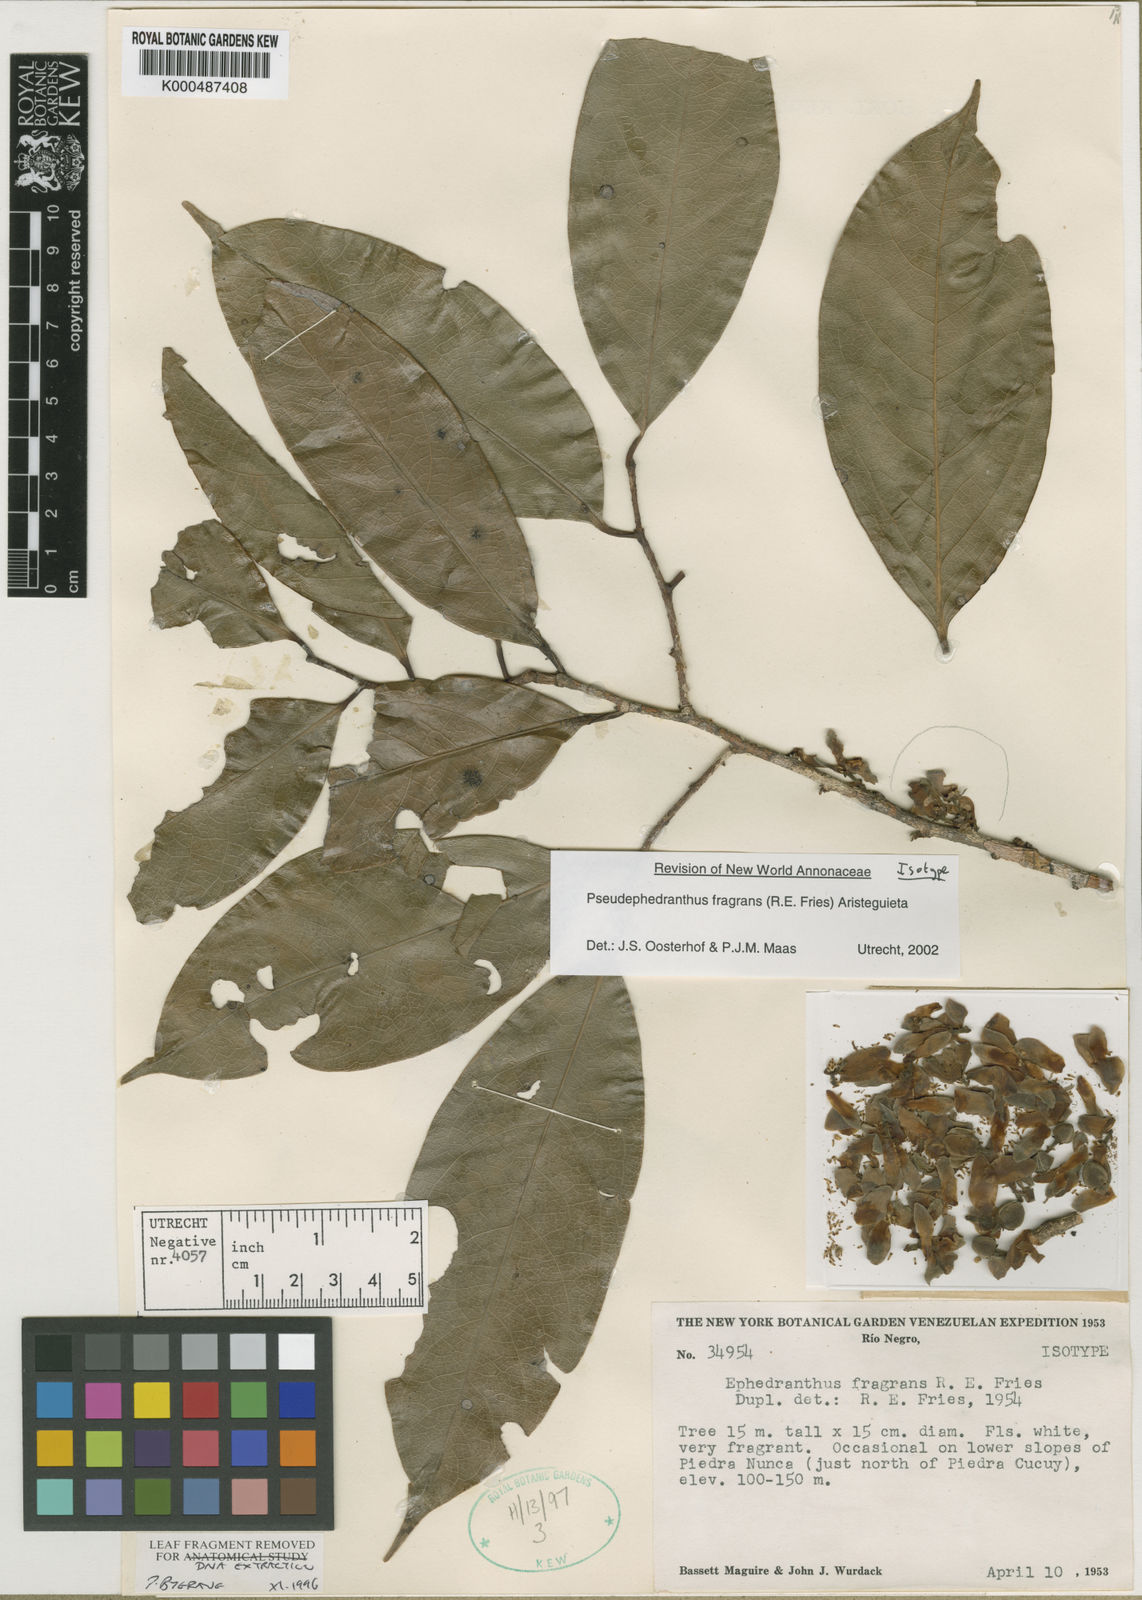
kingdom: Plantae
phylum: Tracheophyta
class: Magnoliopsida
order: Magnoliales
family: Annonaceae
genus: Pseudephedranthus
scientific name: Pseudephedranthus fragrans
